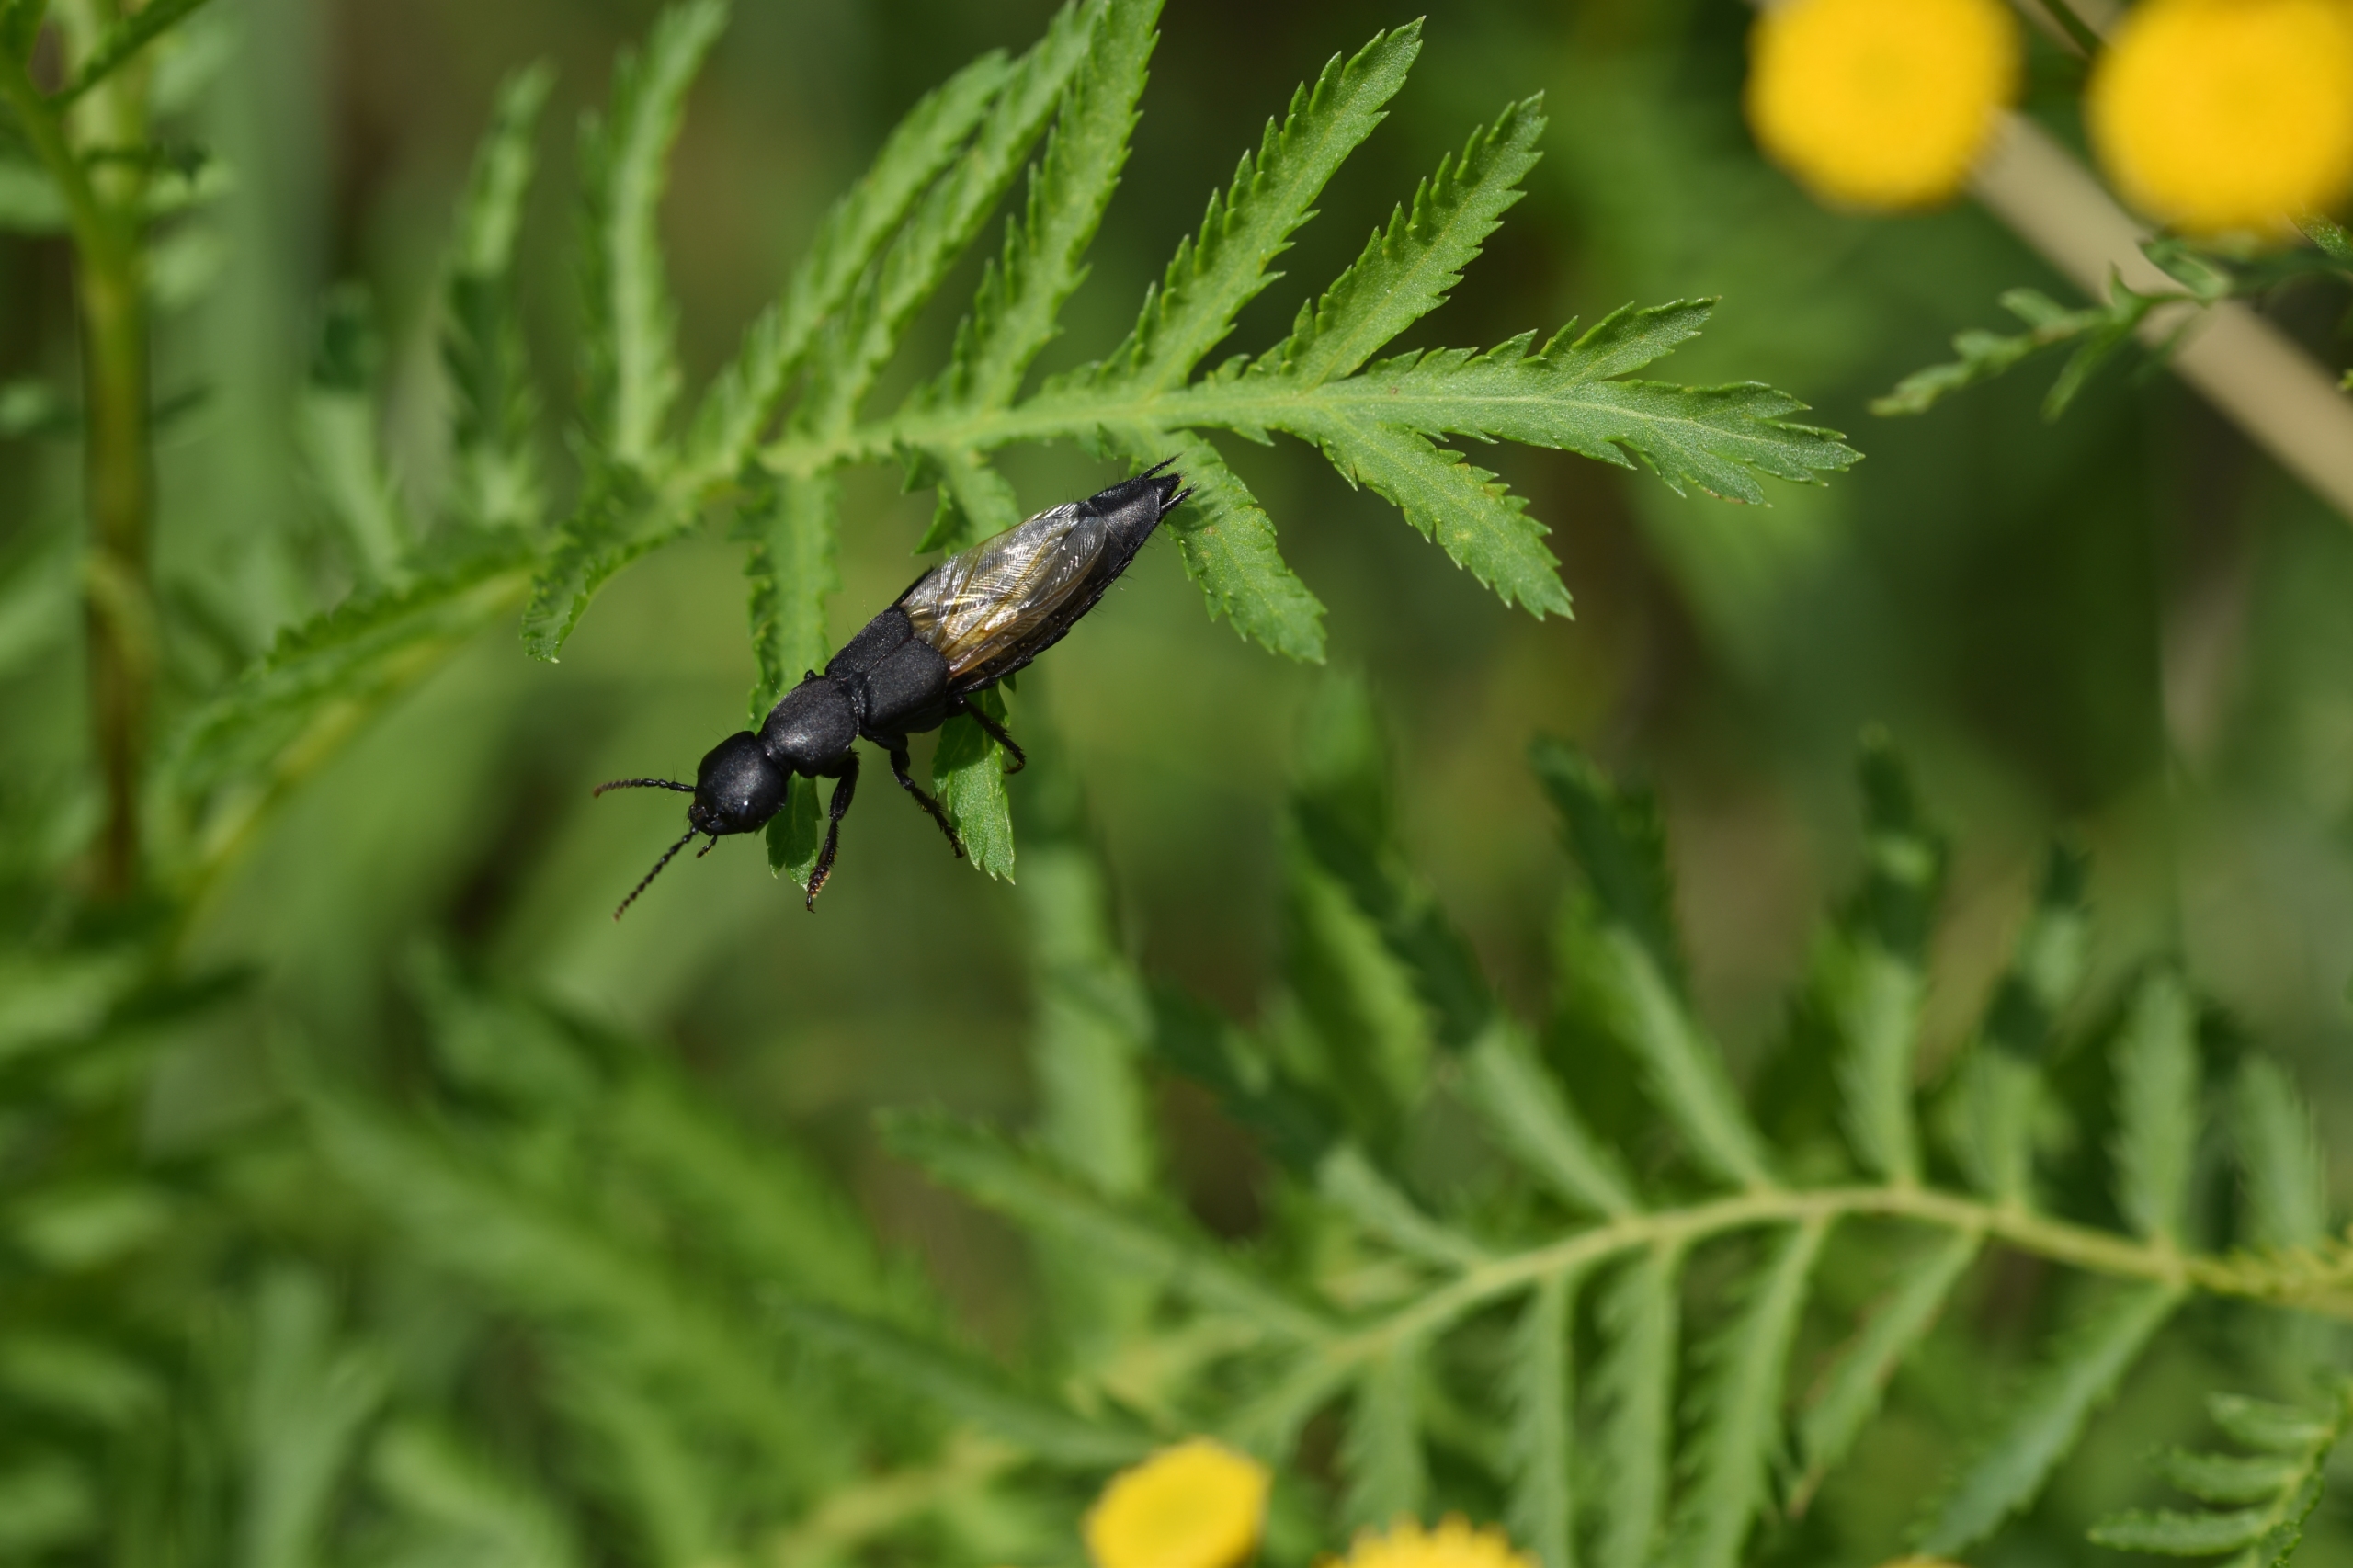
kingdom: Animalia
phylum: Arthropoda
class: Insecta
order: Coleoptera
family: Staphylinidae
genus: Ocypus
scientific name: Ocypus olens
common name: Stor rovbille
